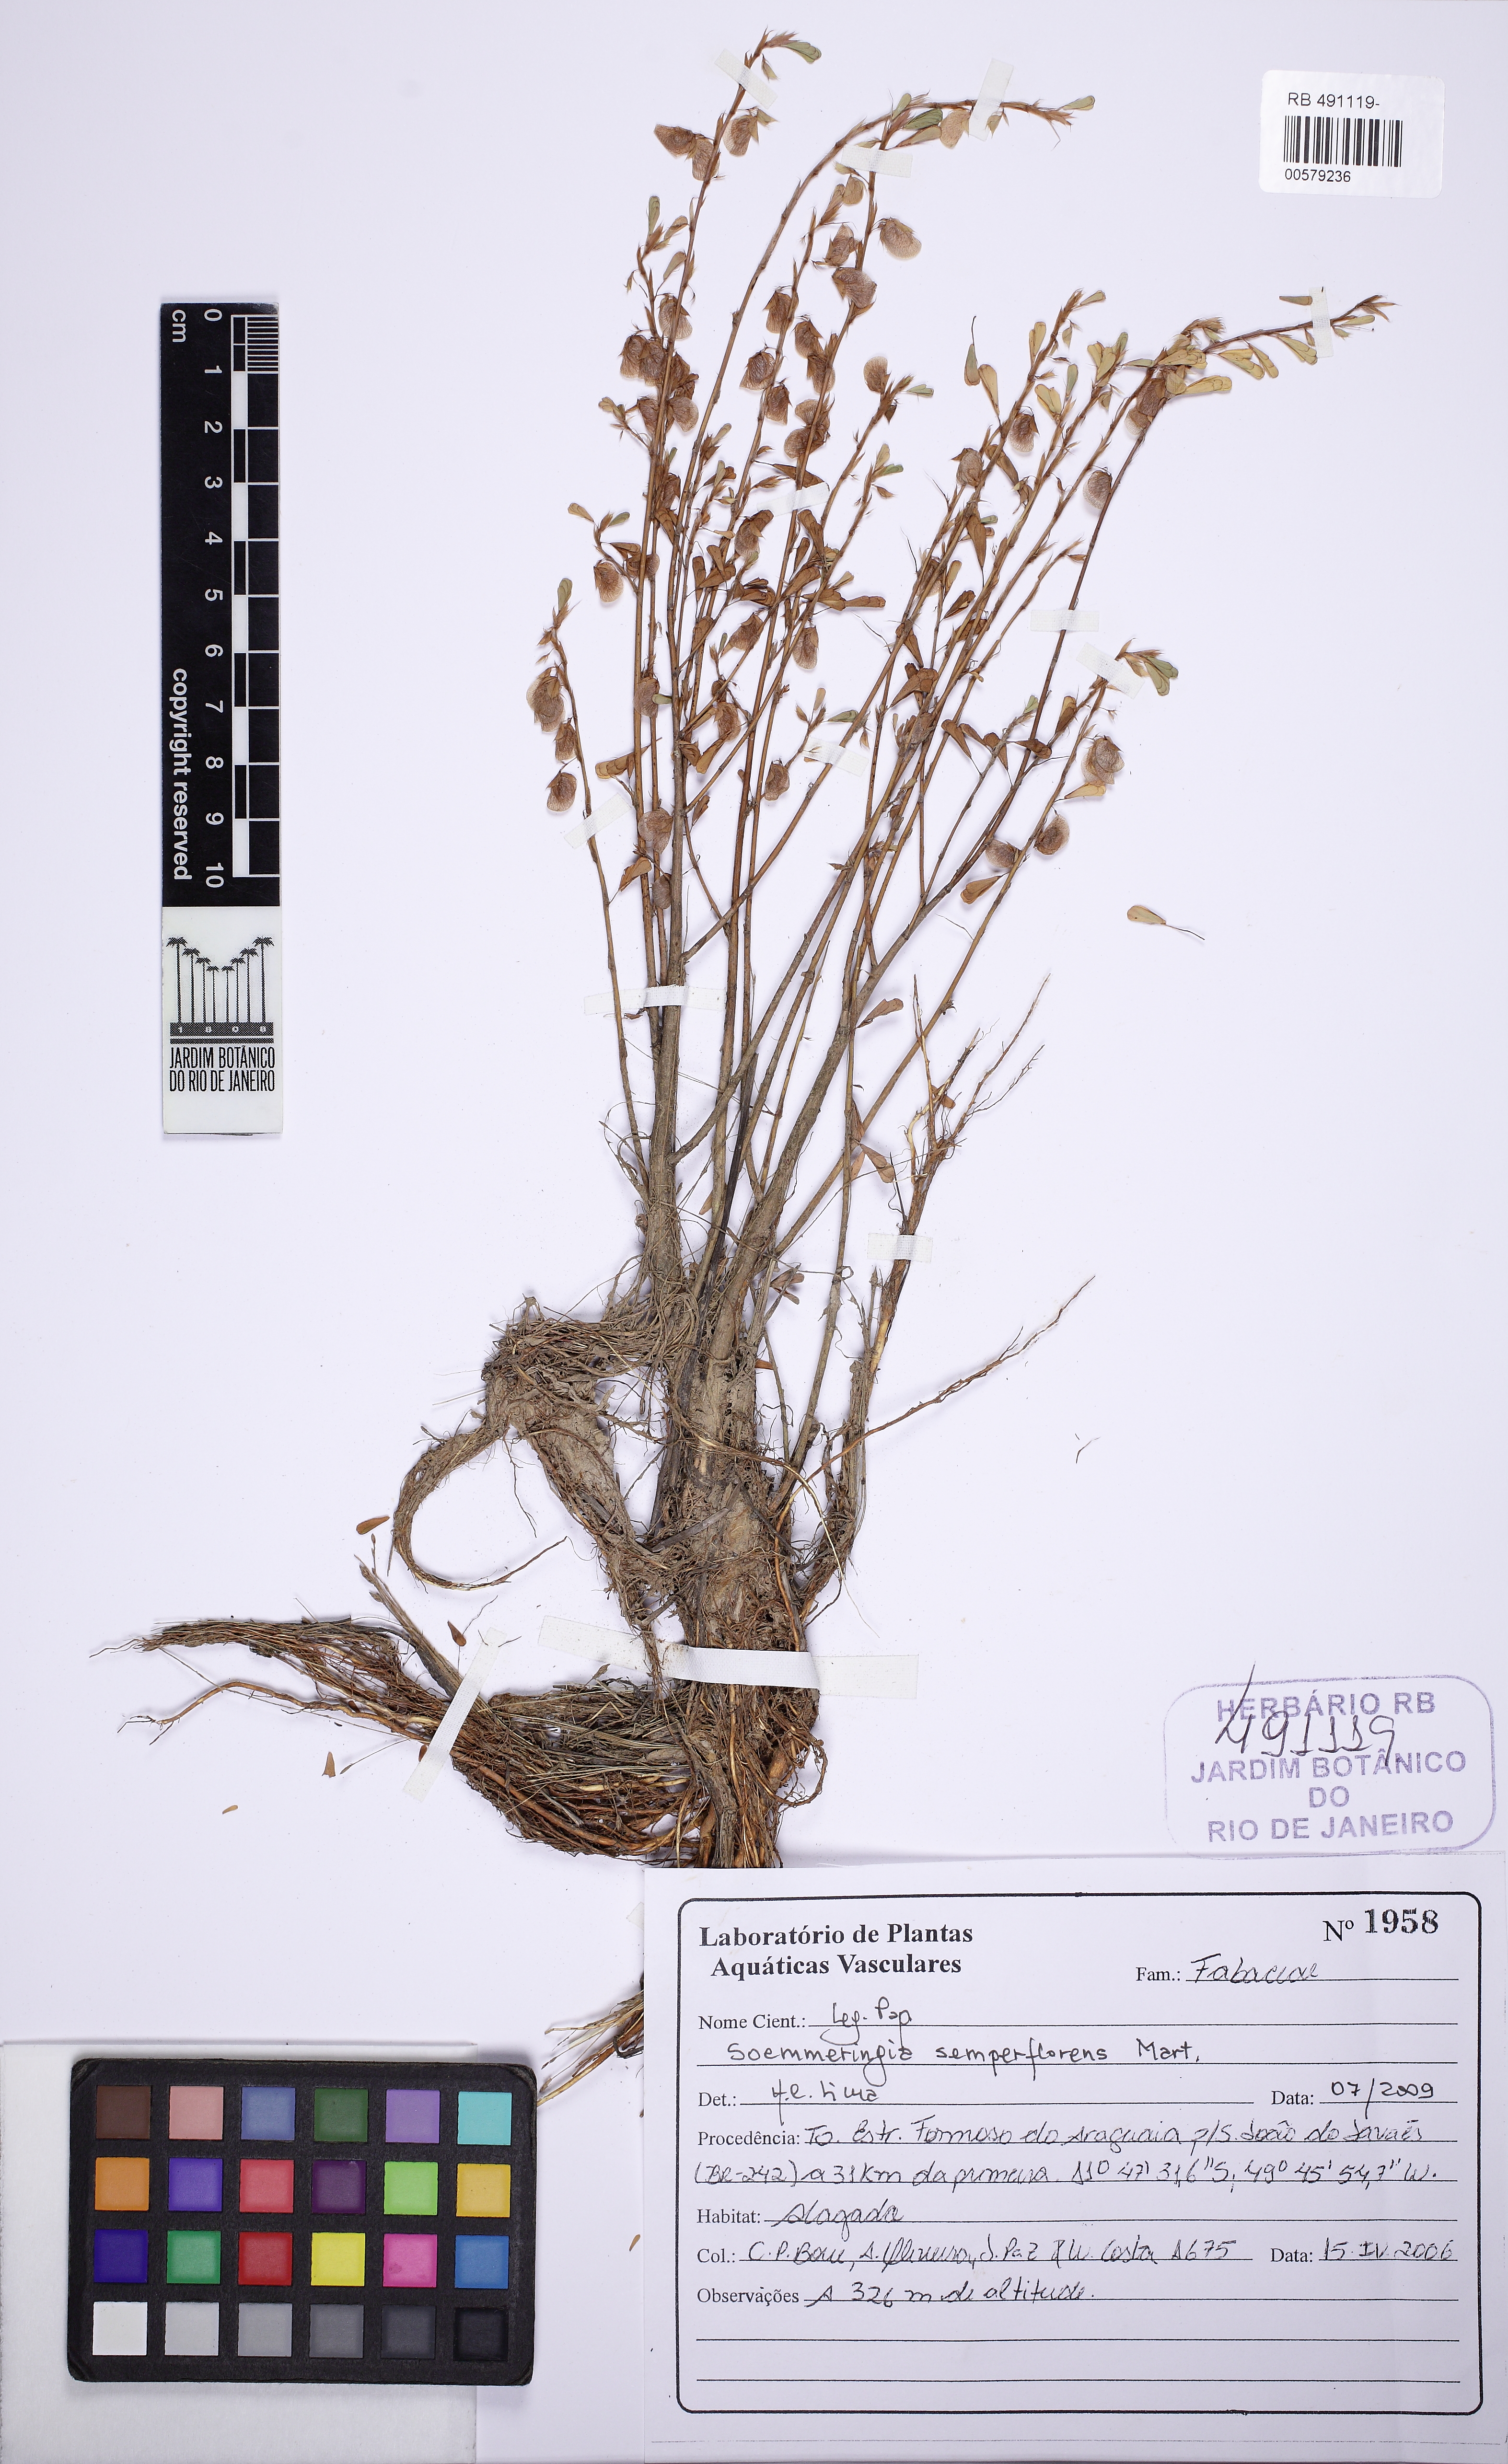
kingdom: Plantae
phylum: Tracheophyta
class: Magnoliopsida
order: Fabales
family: Fabaceae
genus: Soemmeringia
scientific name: Soemmeringia semperflorens
